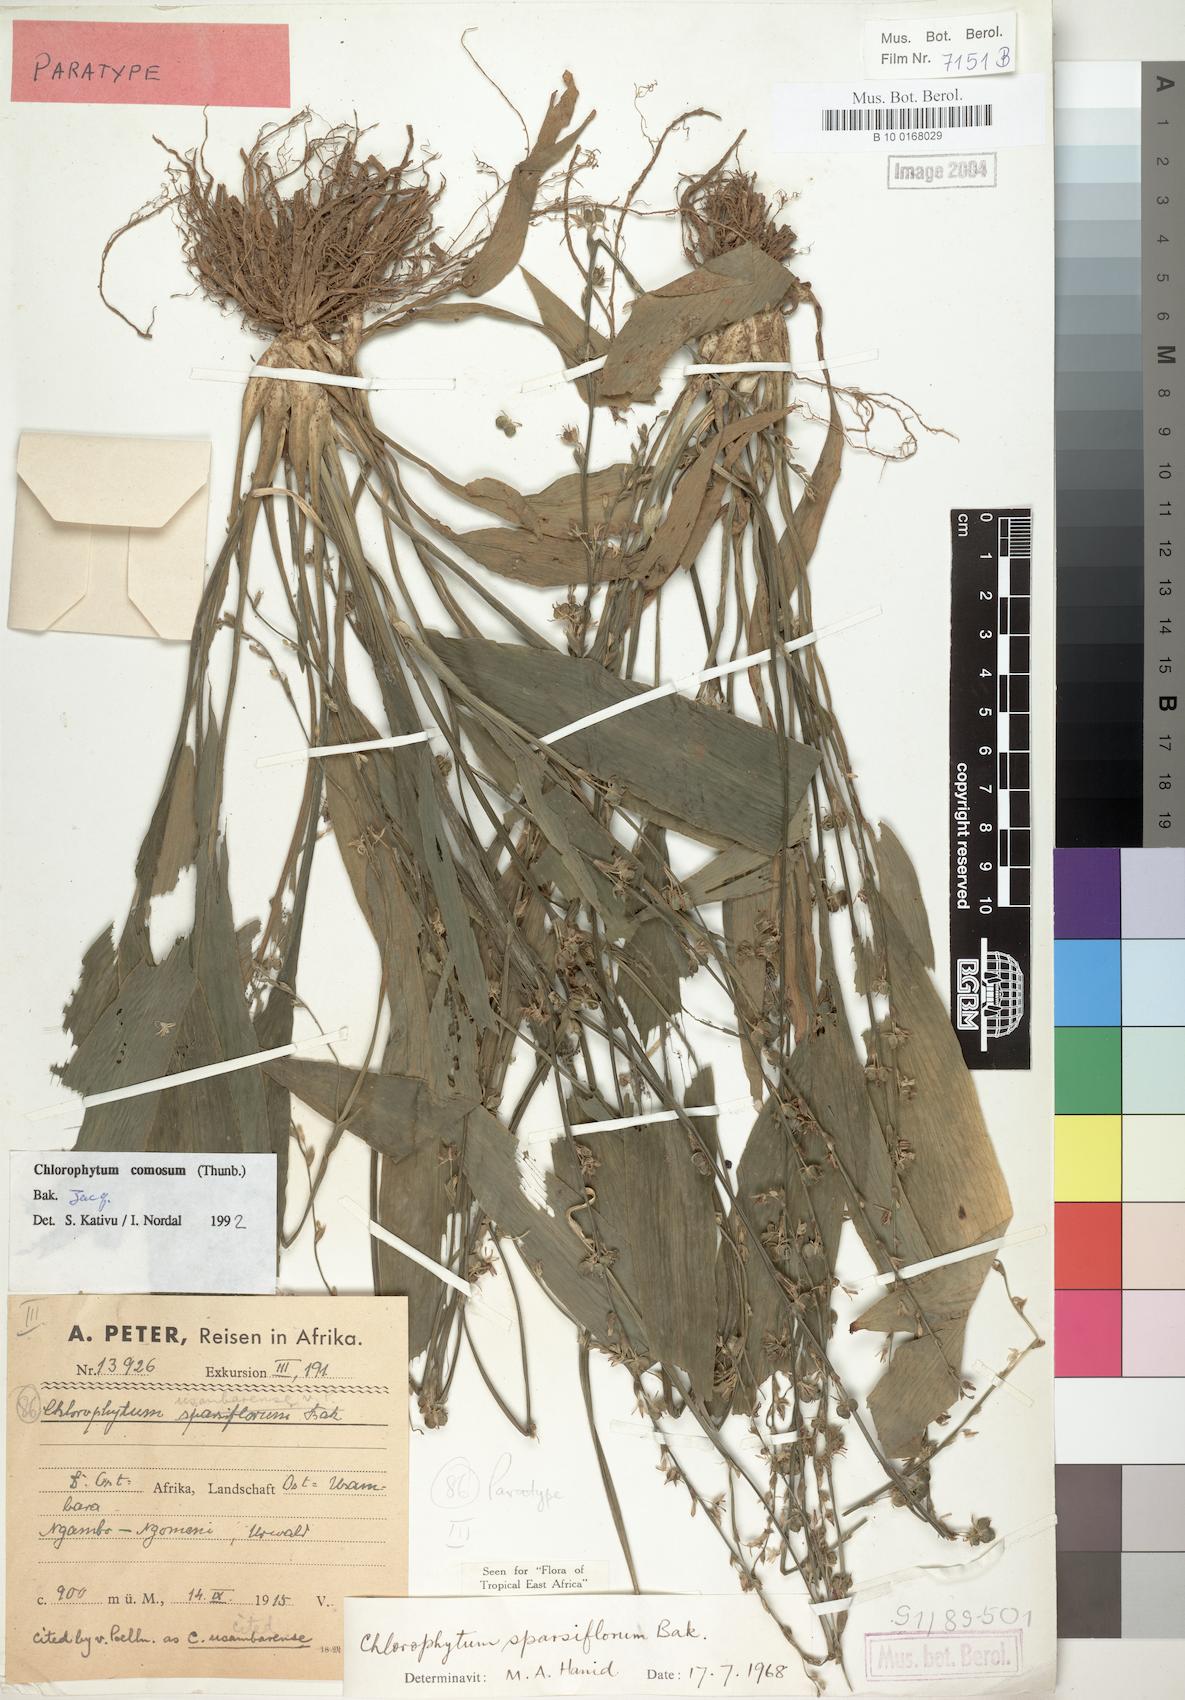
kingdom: Plantae
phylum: Tracheophyta
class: Liliopsida
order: Asparagales
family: Asparagaceae
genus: Chlorophytum
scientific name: Chlorophytum comosum
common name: Spider plant
